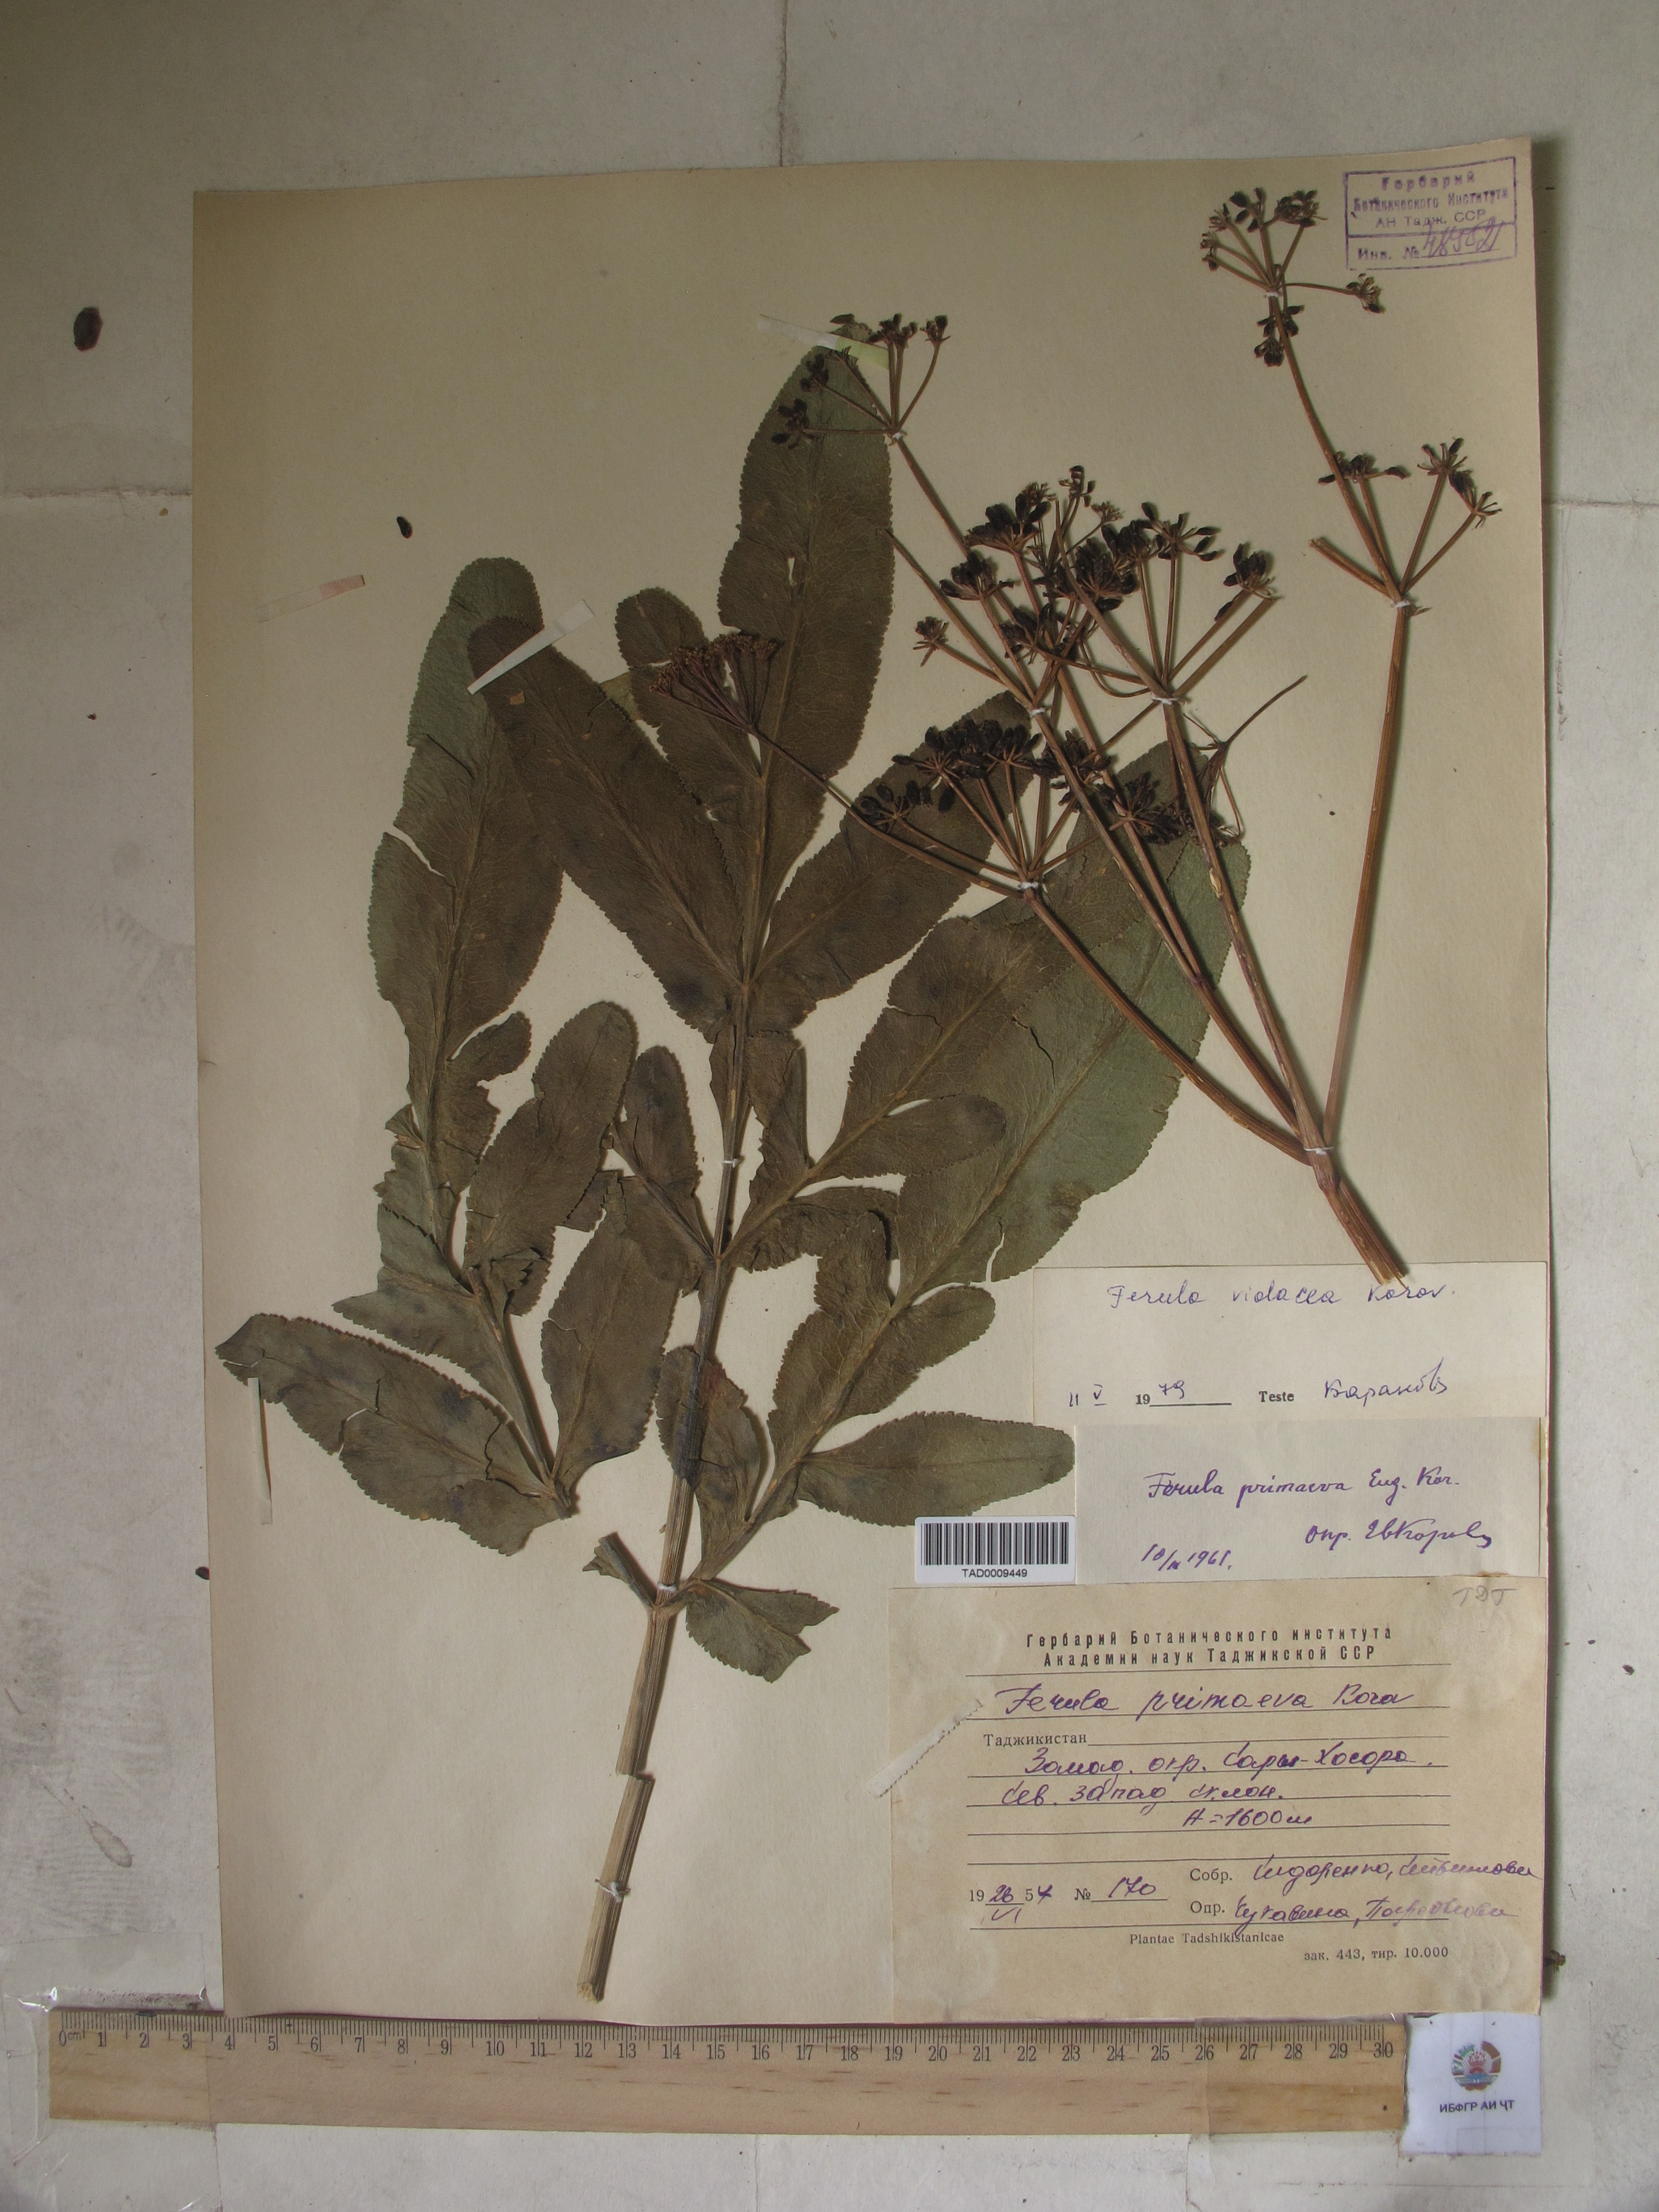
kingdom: Plantae
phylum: Tracheophyta
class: Magnoliopsida
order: Apiales
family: Apiaceae
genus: Ferula
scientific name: Ferula violacea
